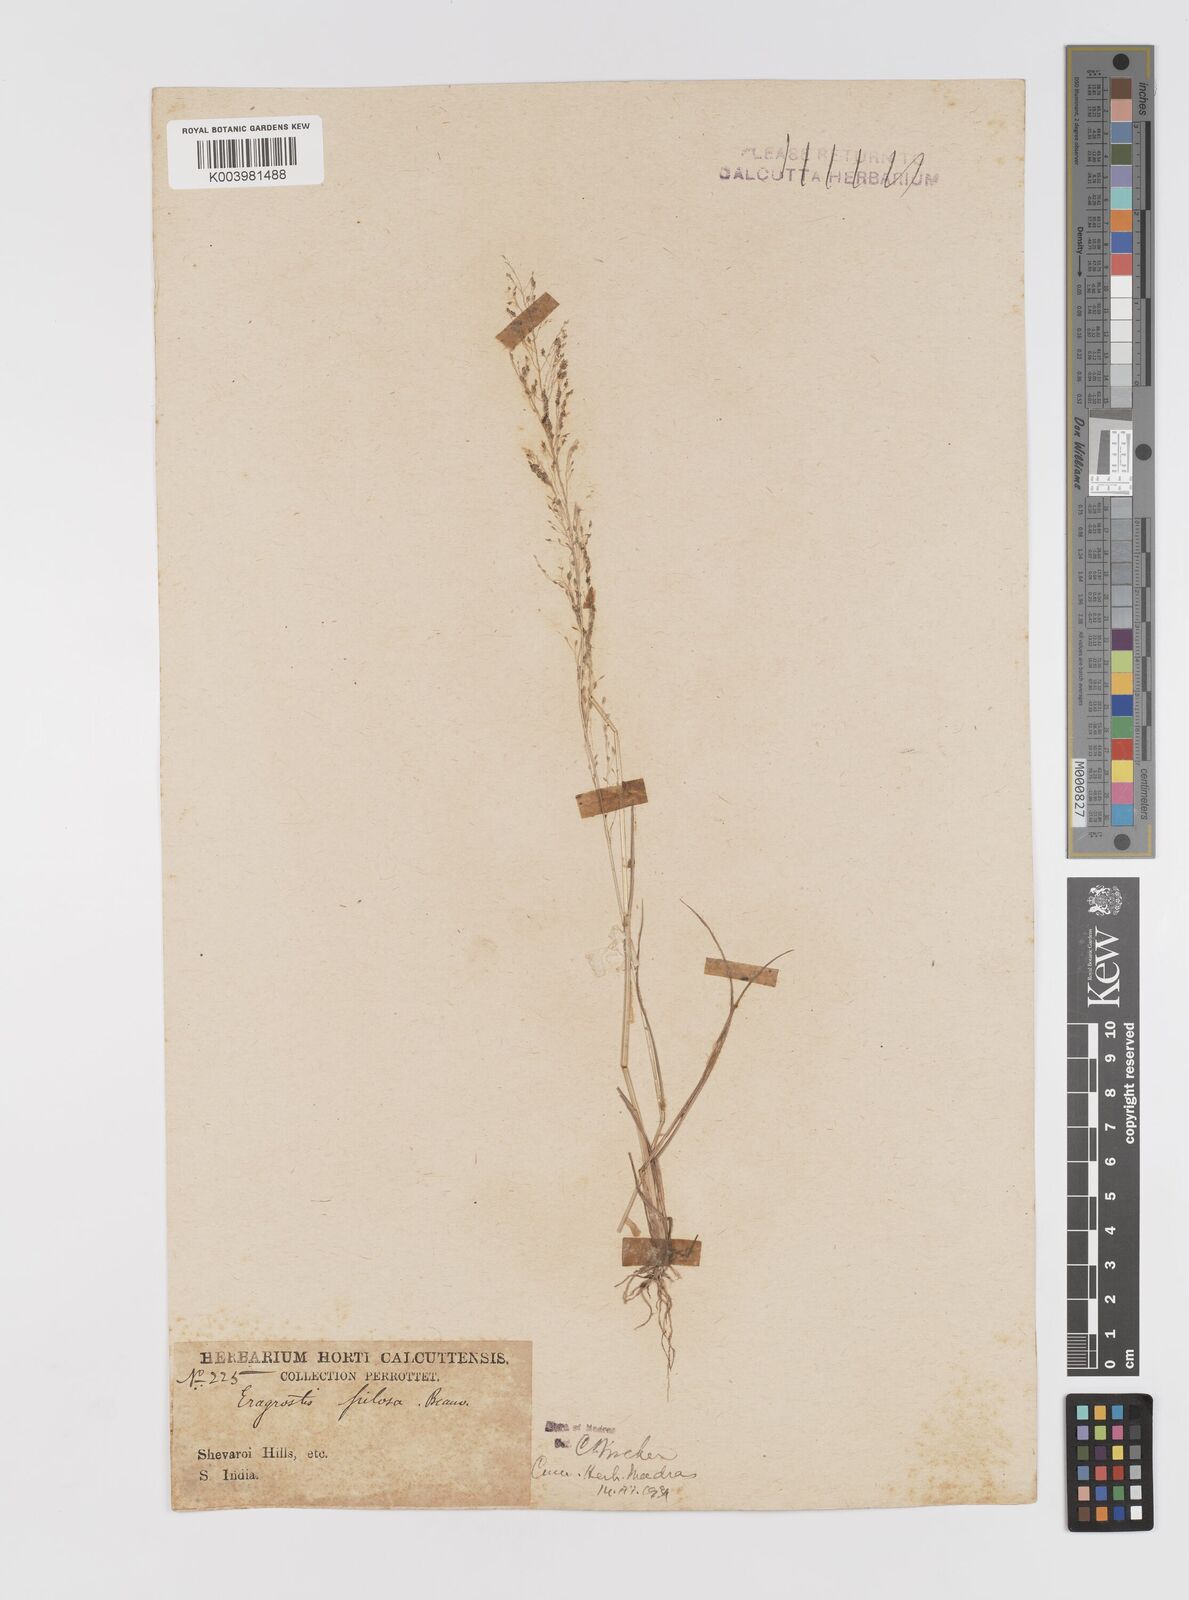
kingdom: Plantae
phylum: Tracheophyta
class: Liliopsida
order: Poales
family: Poaceae
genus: Eragrostis
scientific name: Eragrostis pilosa
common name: Indian lovegrass
